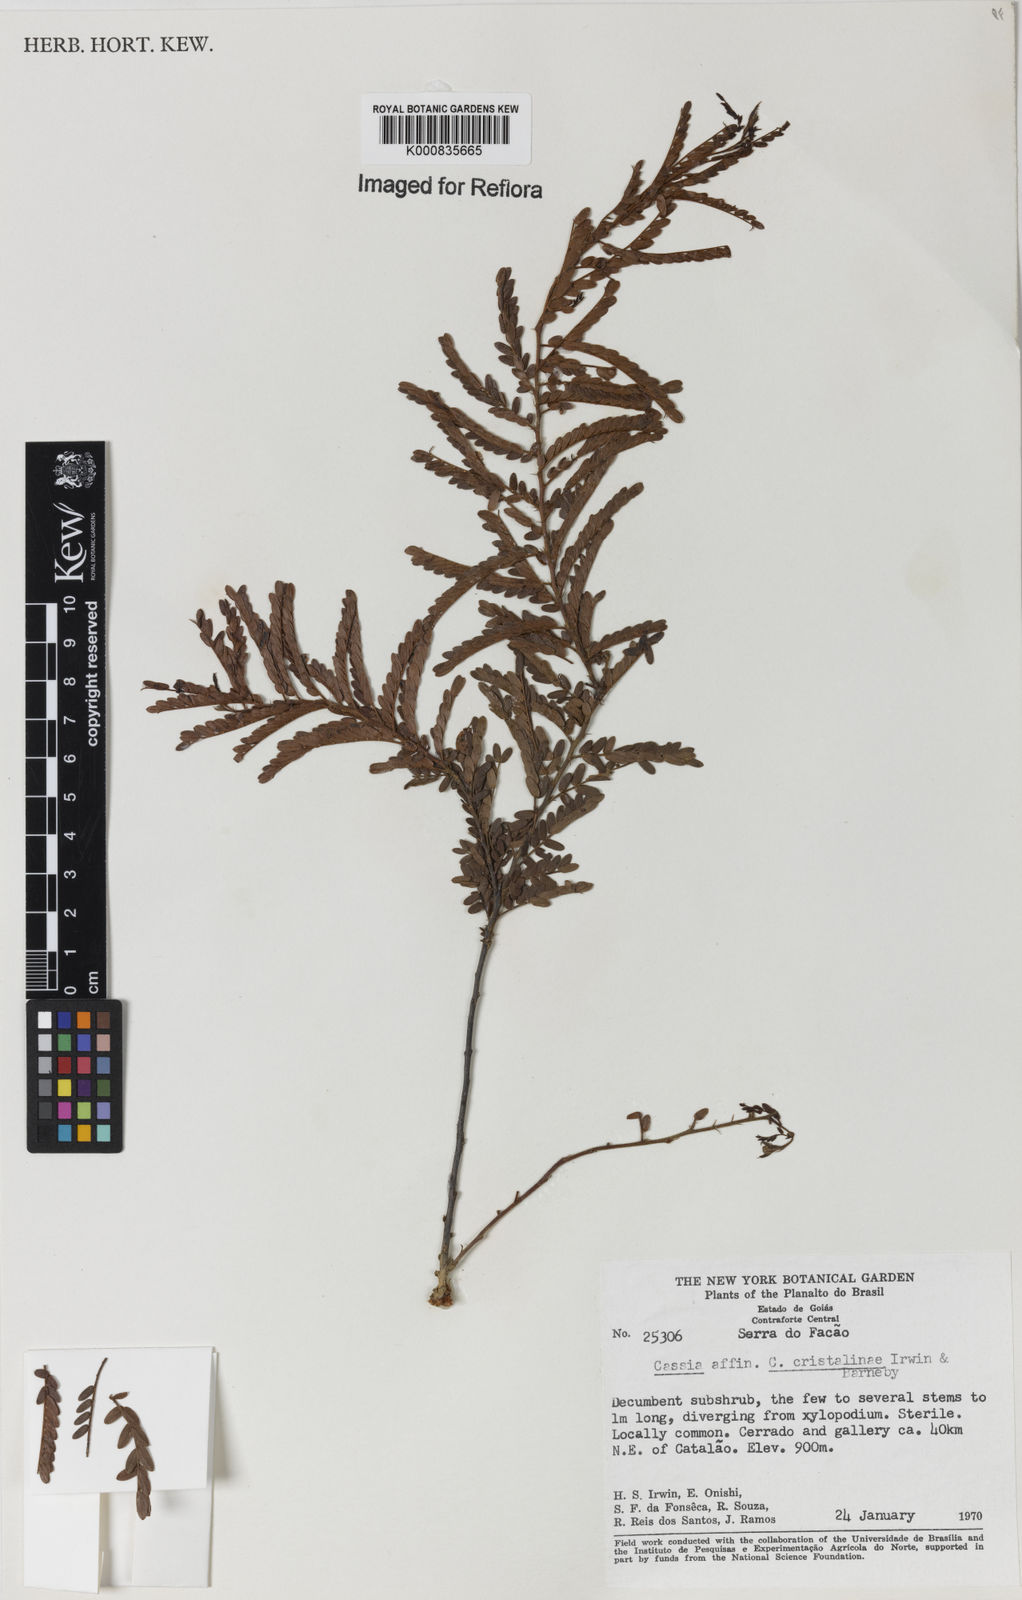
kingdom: Plantae
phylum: Tracheophyta
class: Magnoliopsida
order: Fabales
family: Fabaceae
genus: Chamaecrista
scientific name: Chamaecrista cristalinae
